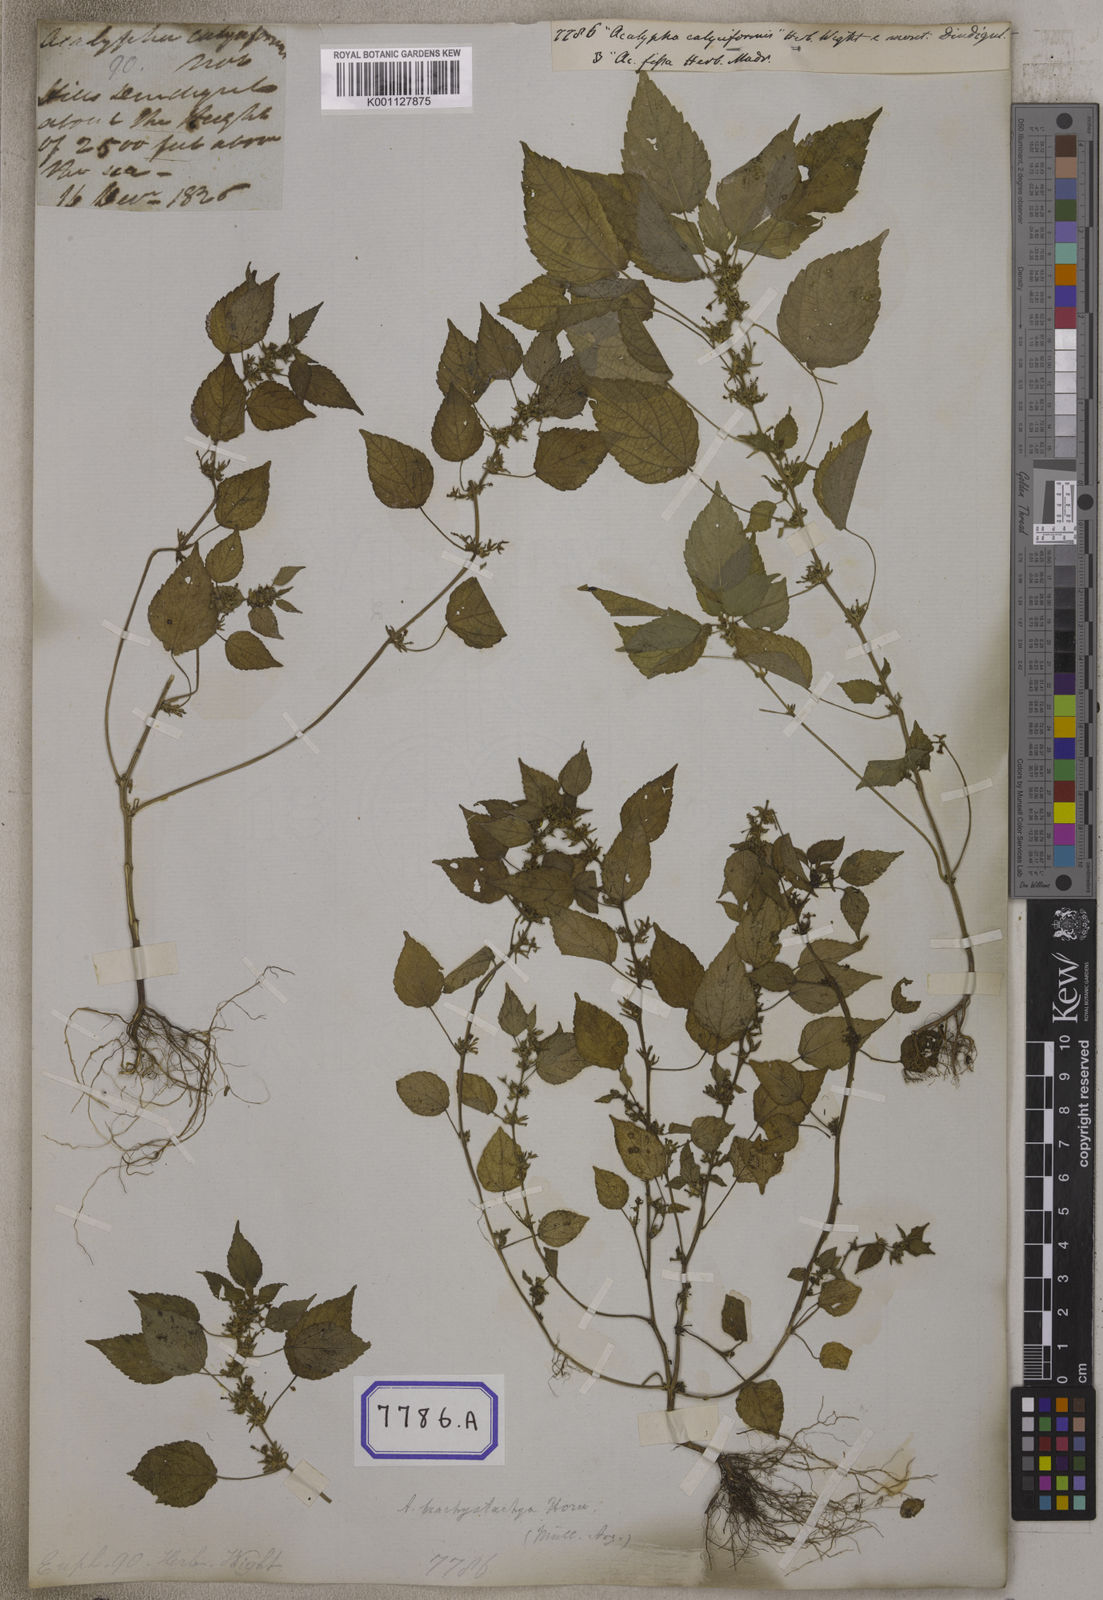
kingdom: Plantae
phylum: Tracheophyta
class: Magnoliopsida
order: Malpighiales
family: Euphorbiaceae
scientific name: Euphorbiaceae
